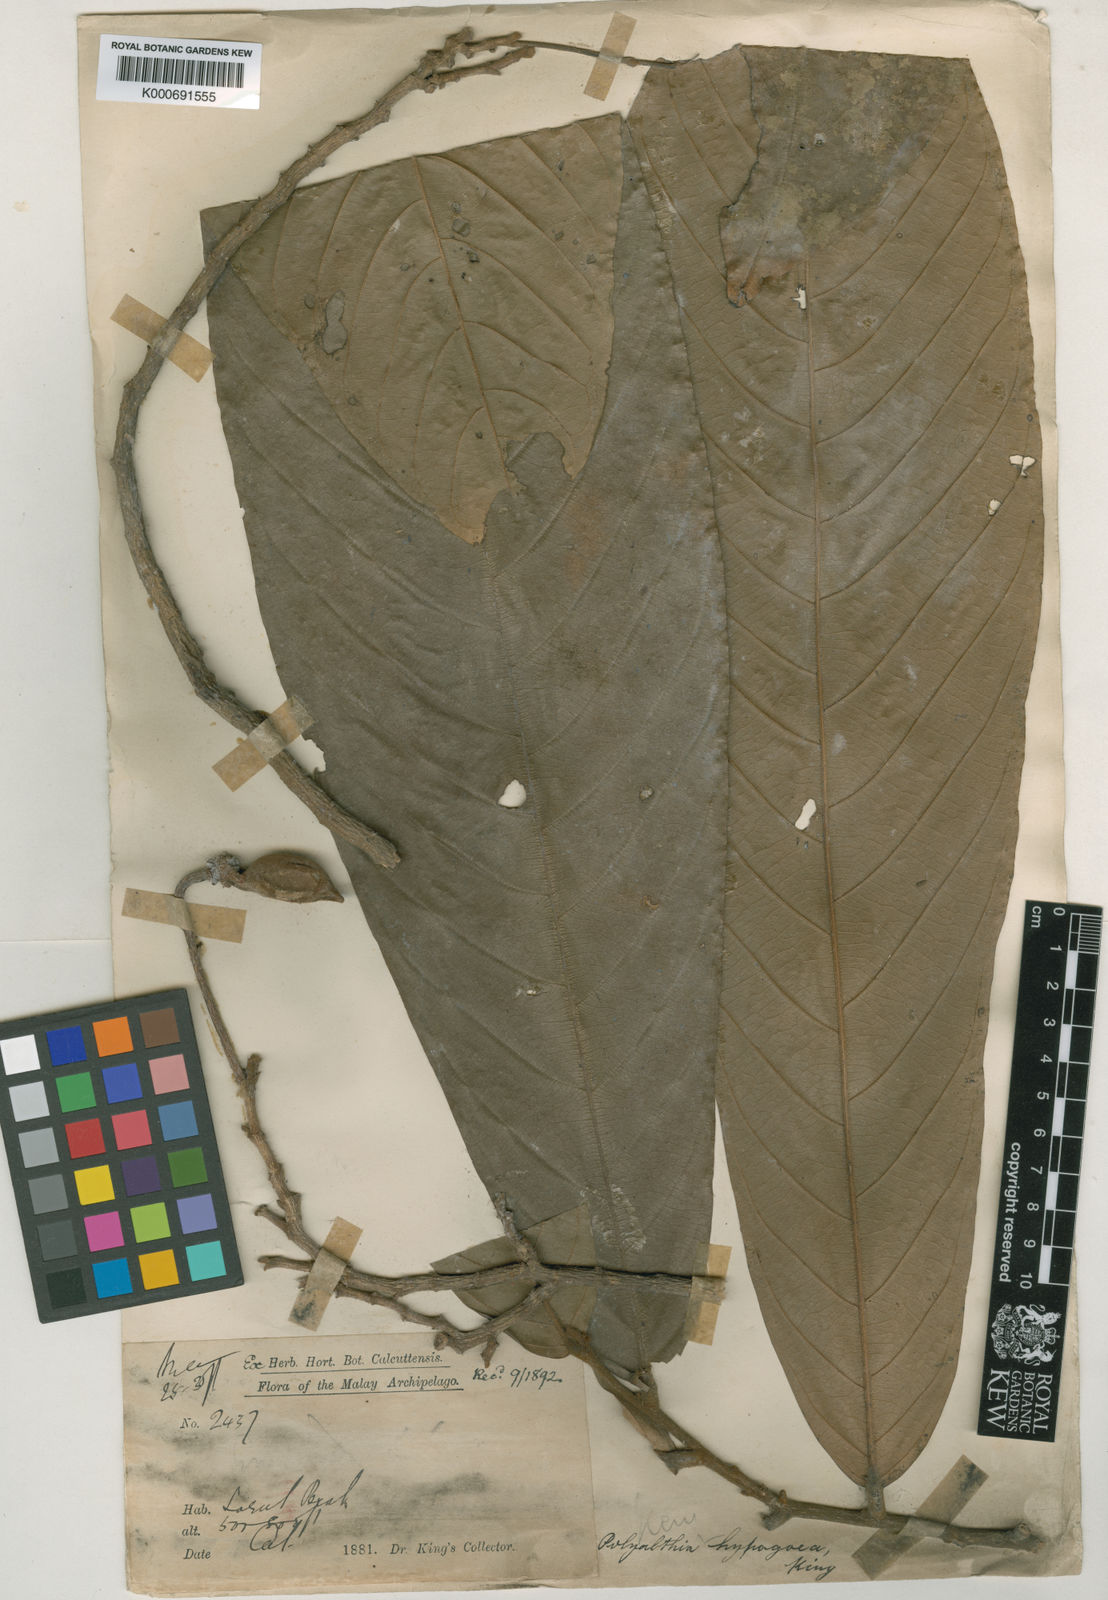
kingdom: Plantae
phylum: Tracheophyta
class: Magnoliopsida
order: Magnoliales
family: Annonaceae
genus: Polyalthia
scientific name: Polyalthia hypogaea
